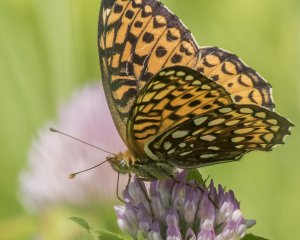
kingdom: Animalia
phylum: Arthropoda
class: Insecta
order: Lepidoptera
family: Nymphalidae
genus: Speyeria
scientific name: Speyeria atlantis
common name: Atlantis Fritillary
